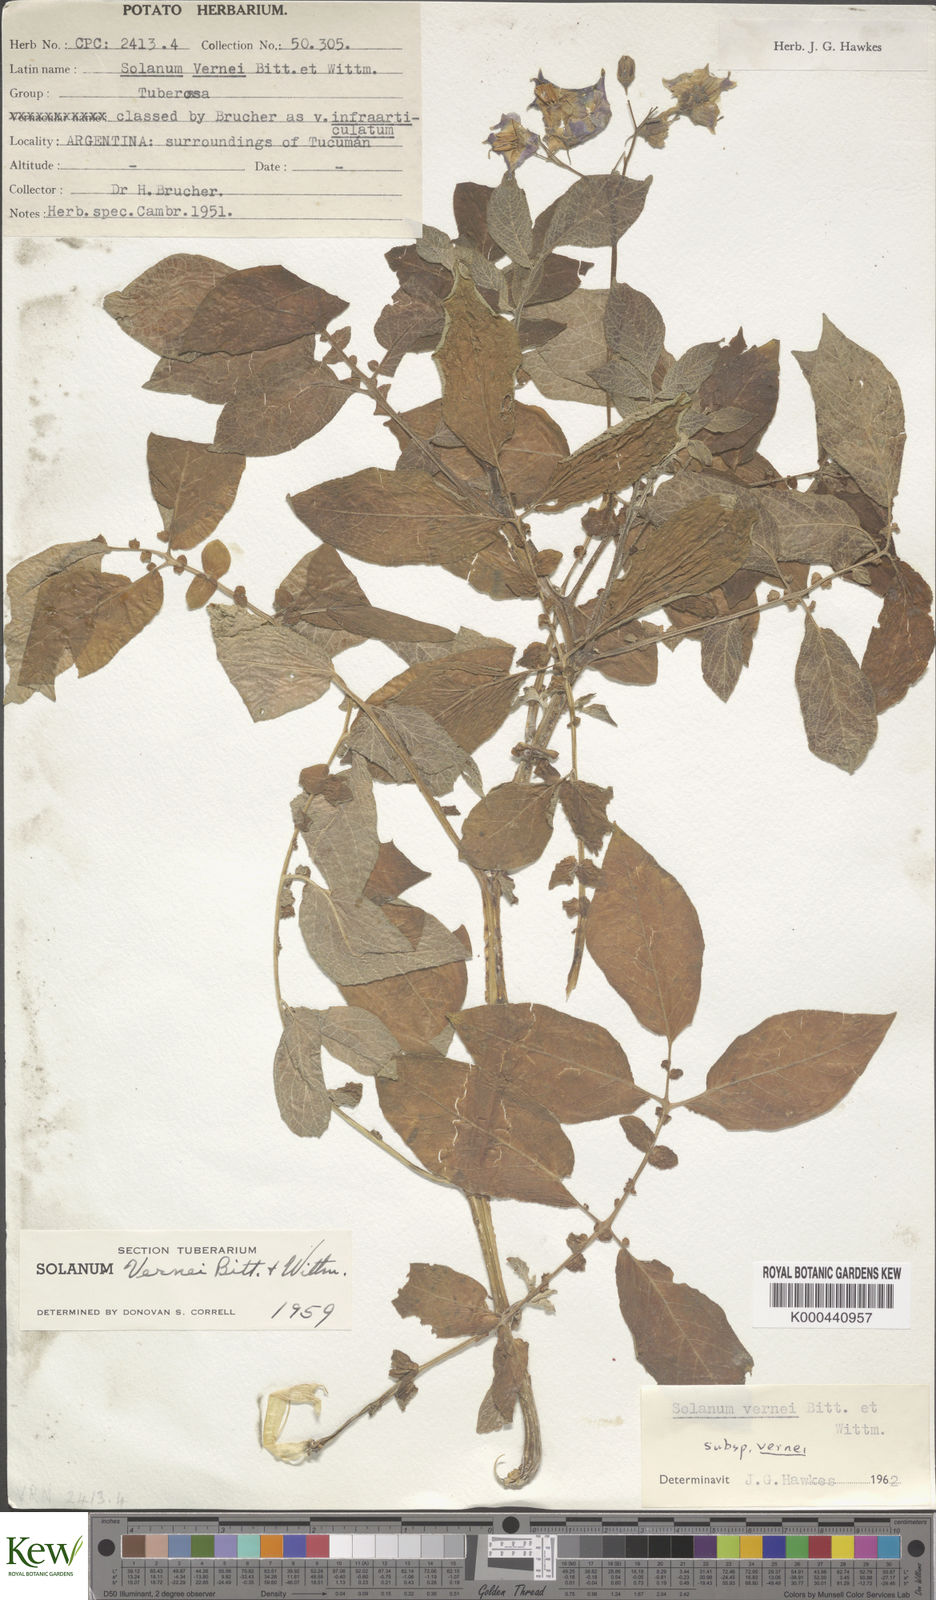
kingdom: Plantae
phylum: Tracheophyta
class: Magnoliopsida
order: Solanales
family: Solanaceae
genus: Solanum
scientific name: Solanum vernei
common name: Purple potato
